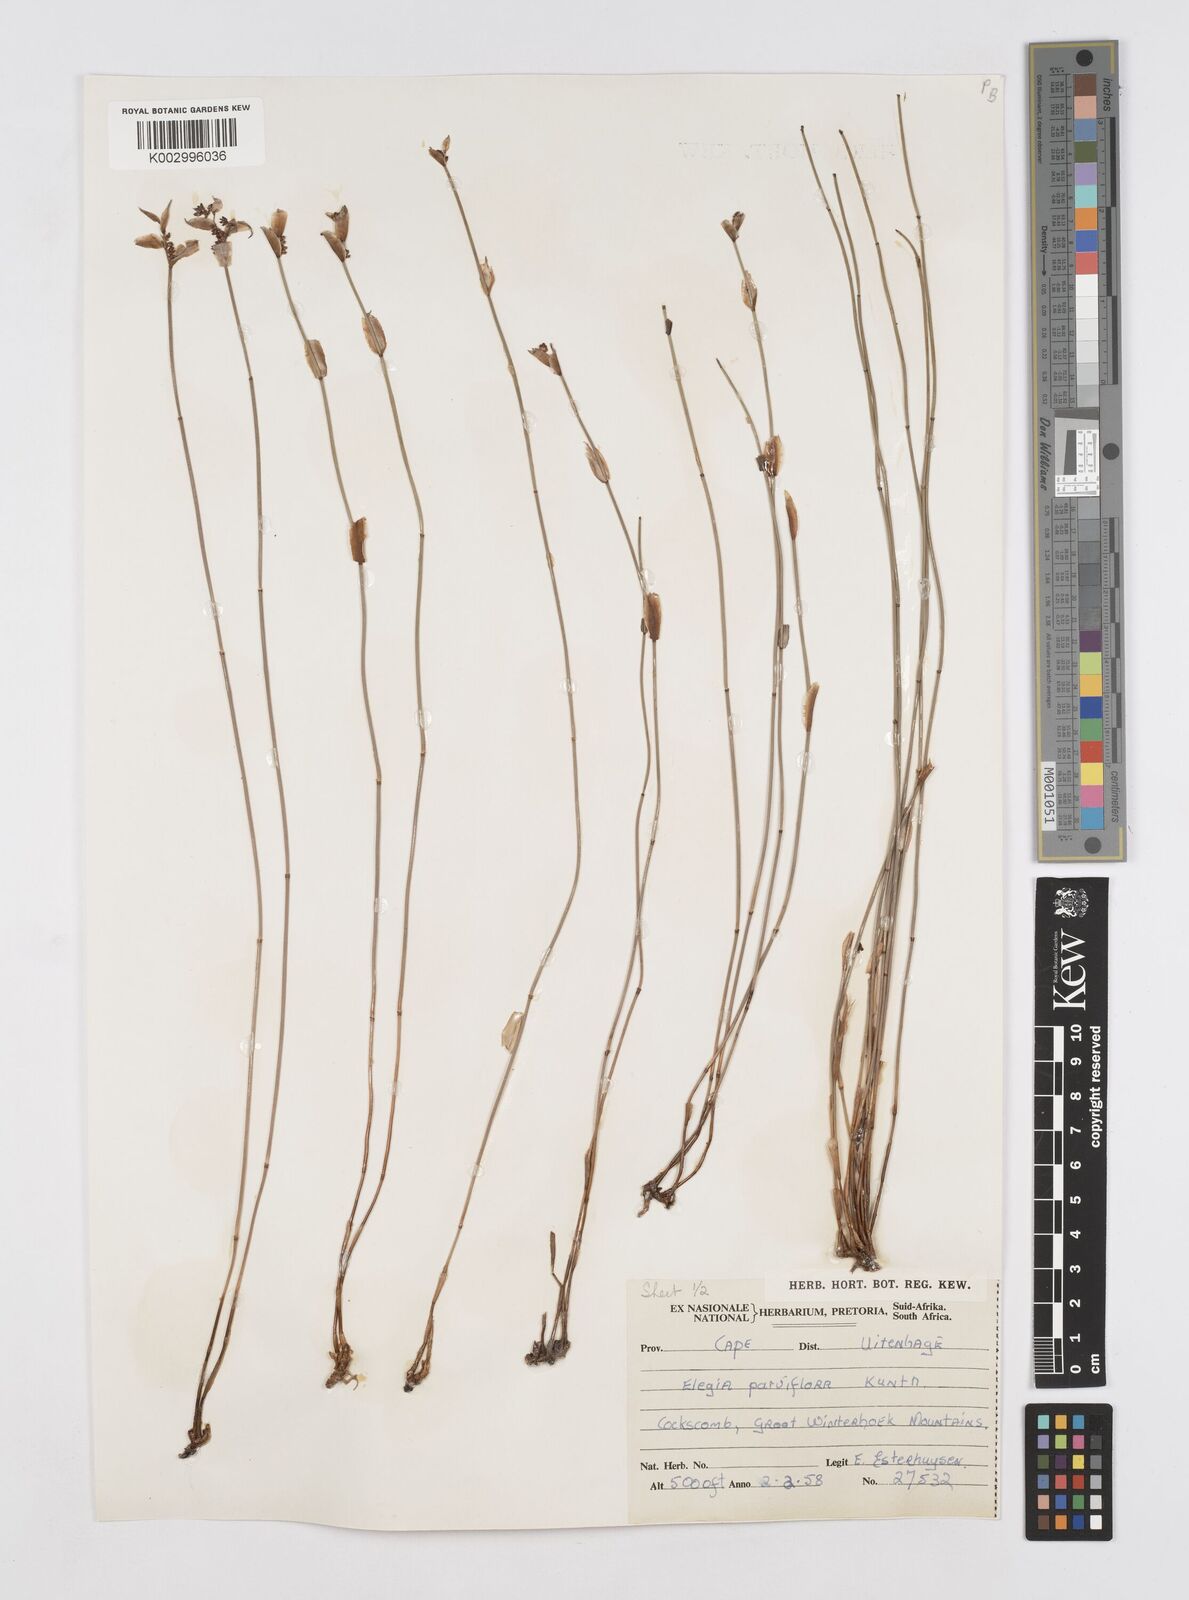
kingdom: Plantae
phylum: Tracheophyta
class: Liliopsida
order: Poales
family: Restionaceae
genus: Cannomois
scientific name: Cannomois parviflora
